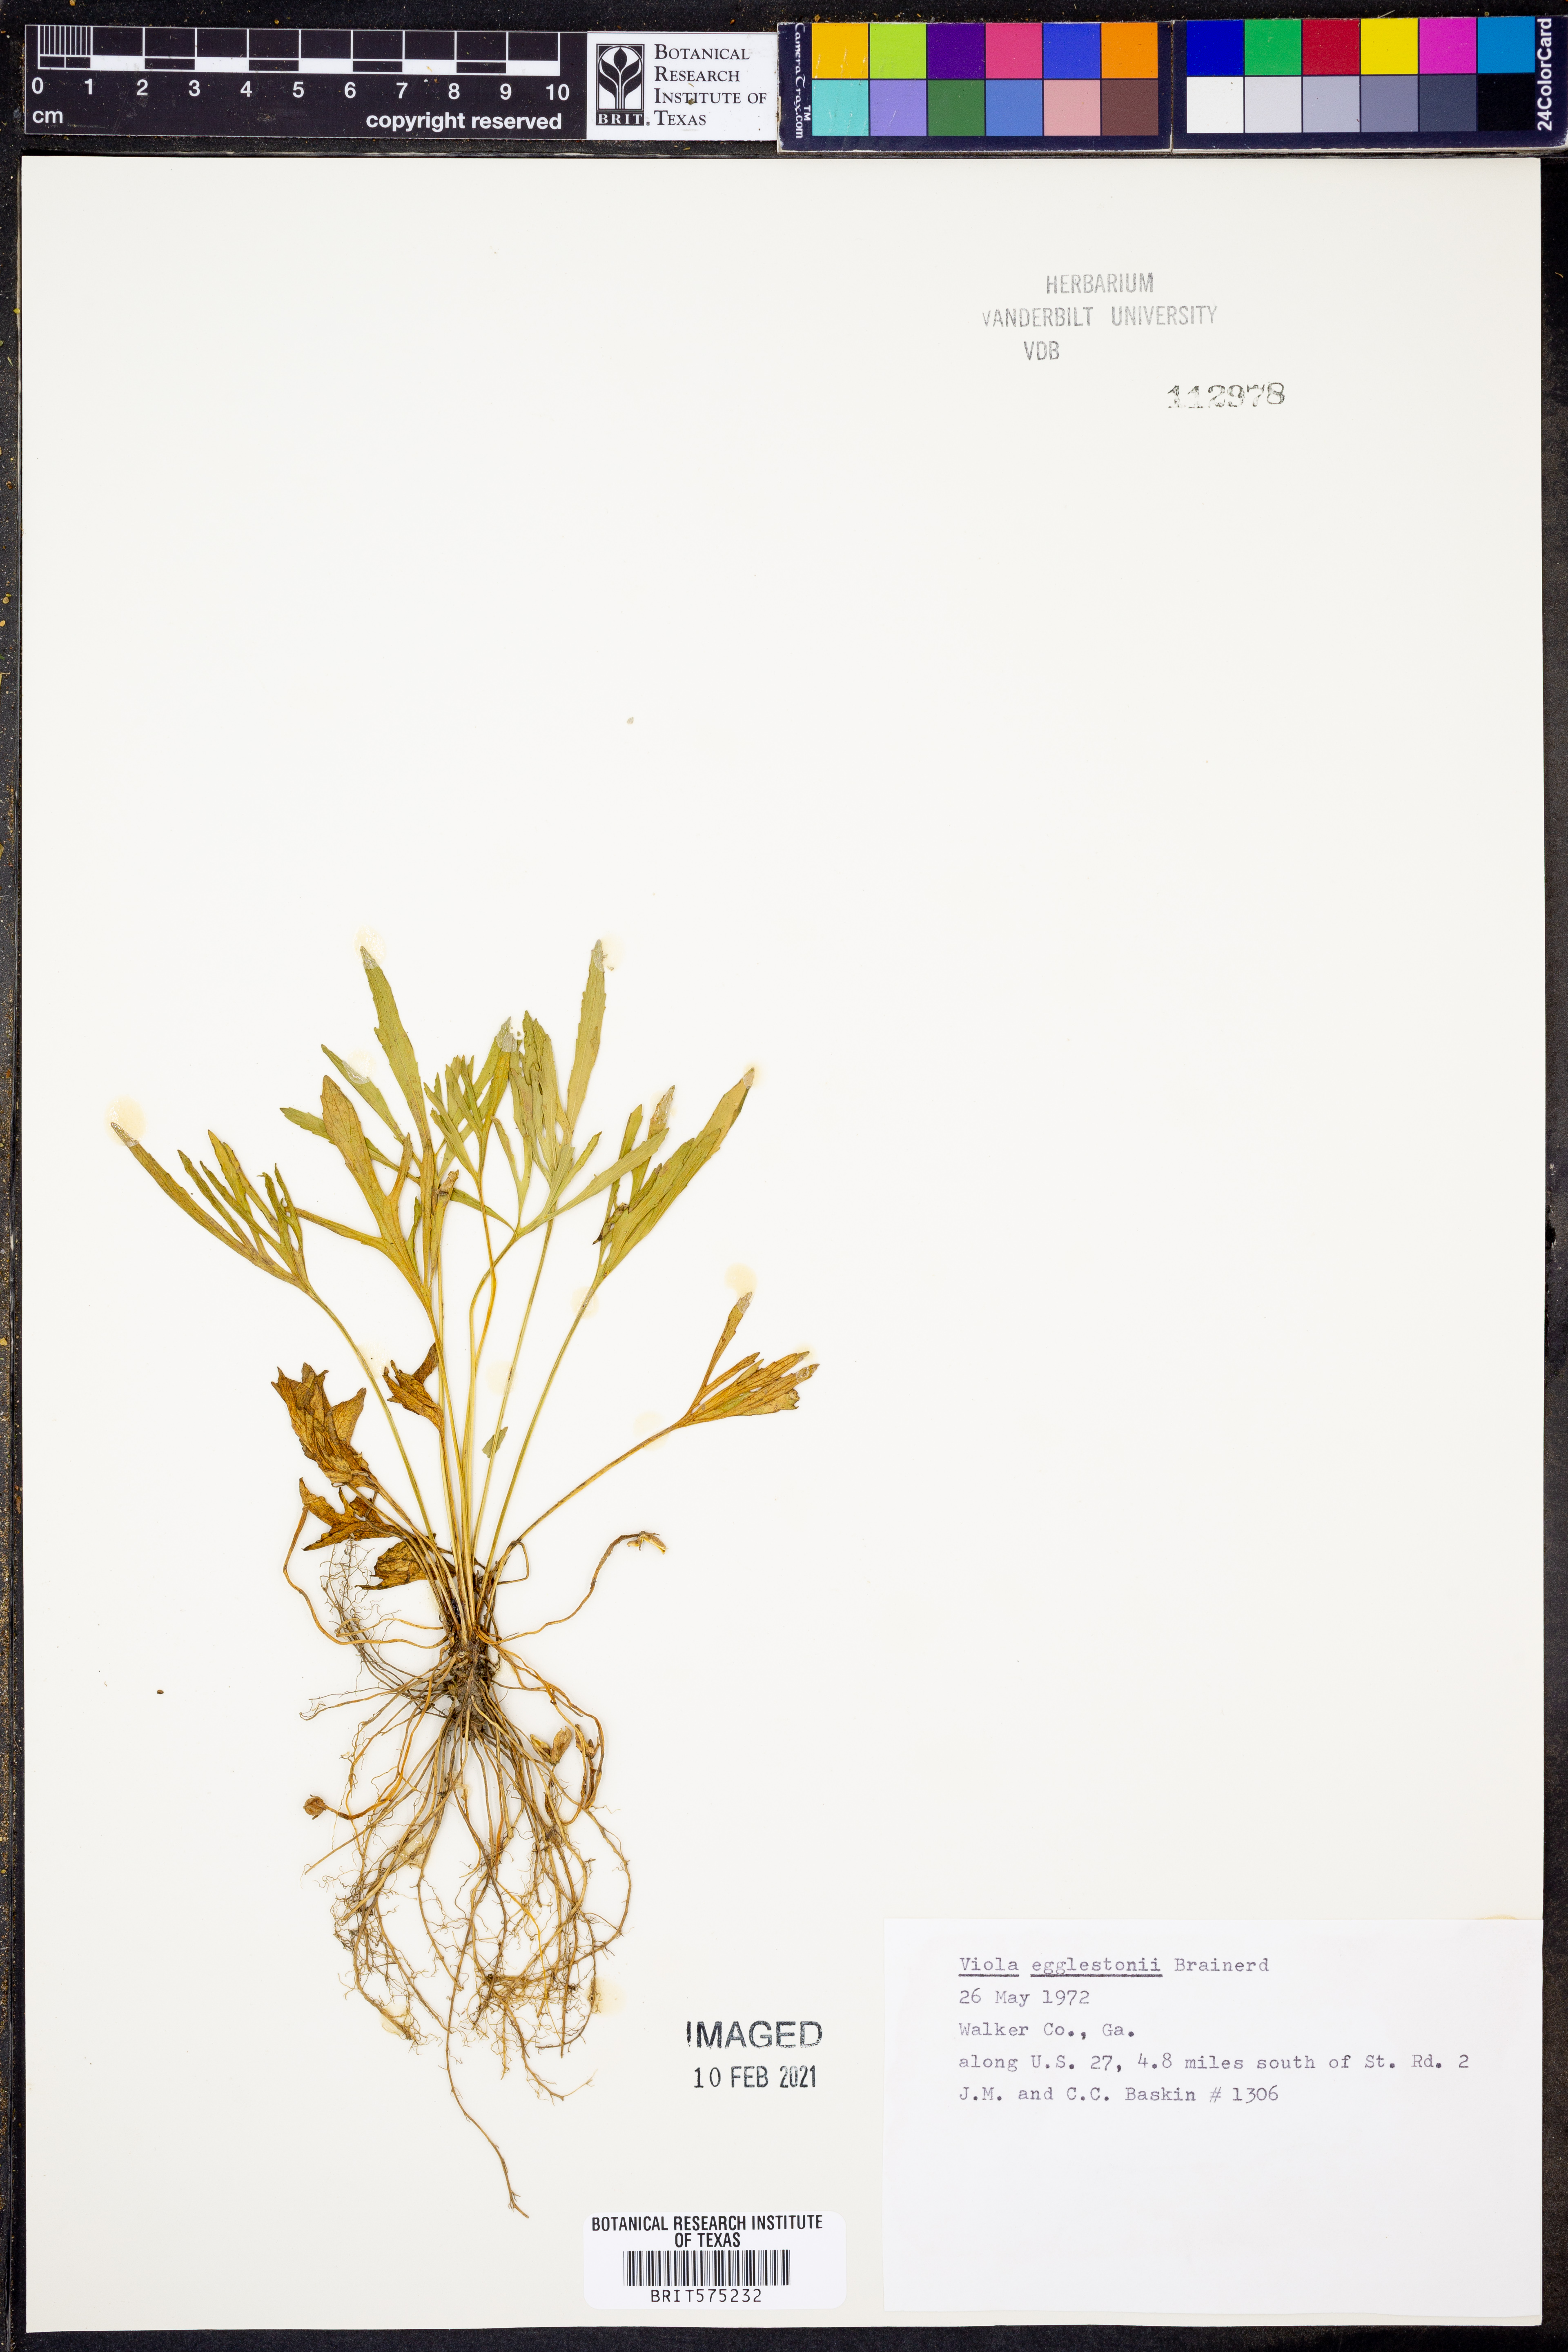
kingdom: Plantae
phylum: Tracheophyta
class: Magnoliopsida
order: Malpighiales
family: Violaceae
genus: Viola
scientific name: Viola egglestonii
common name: Glade violet
